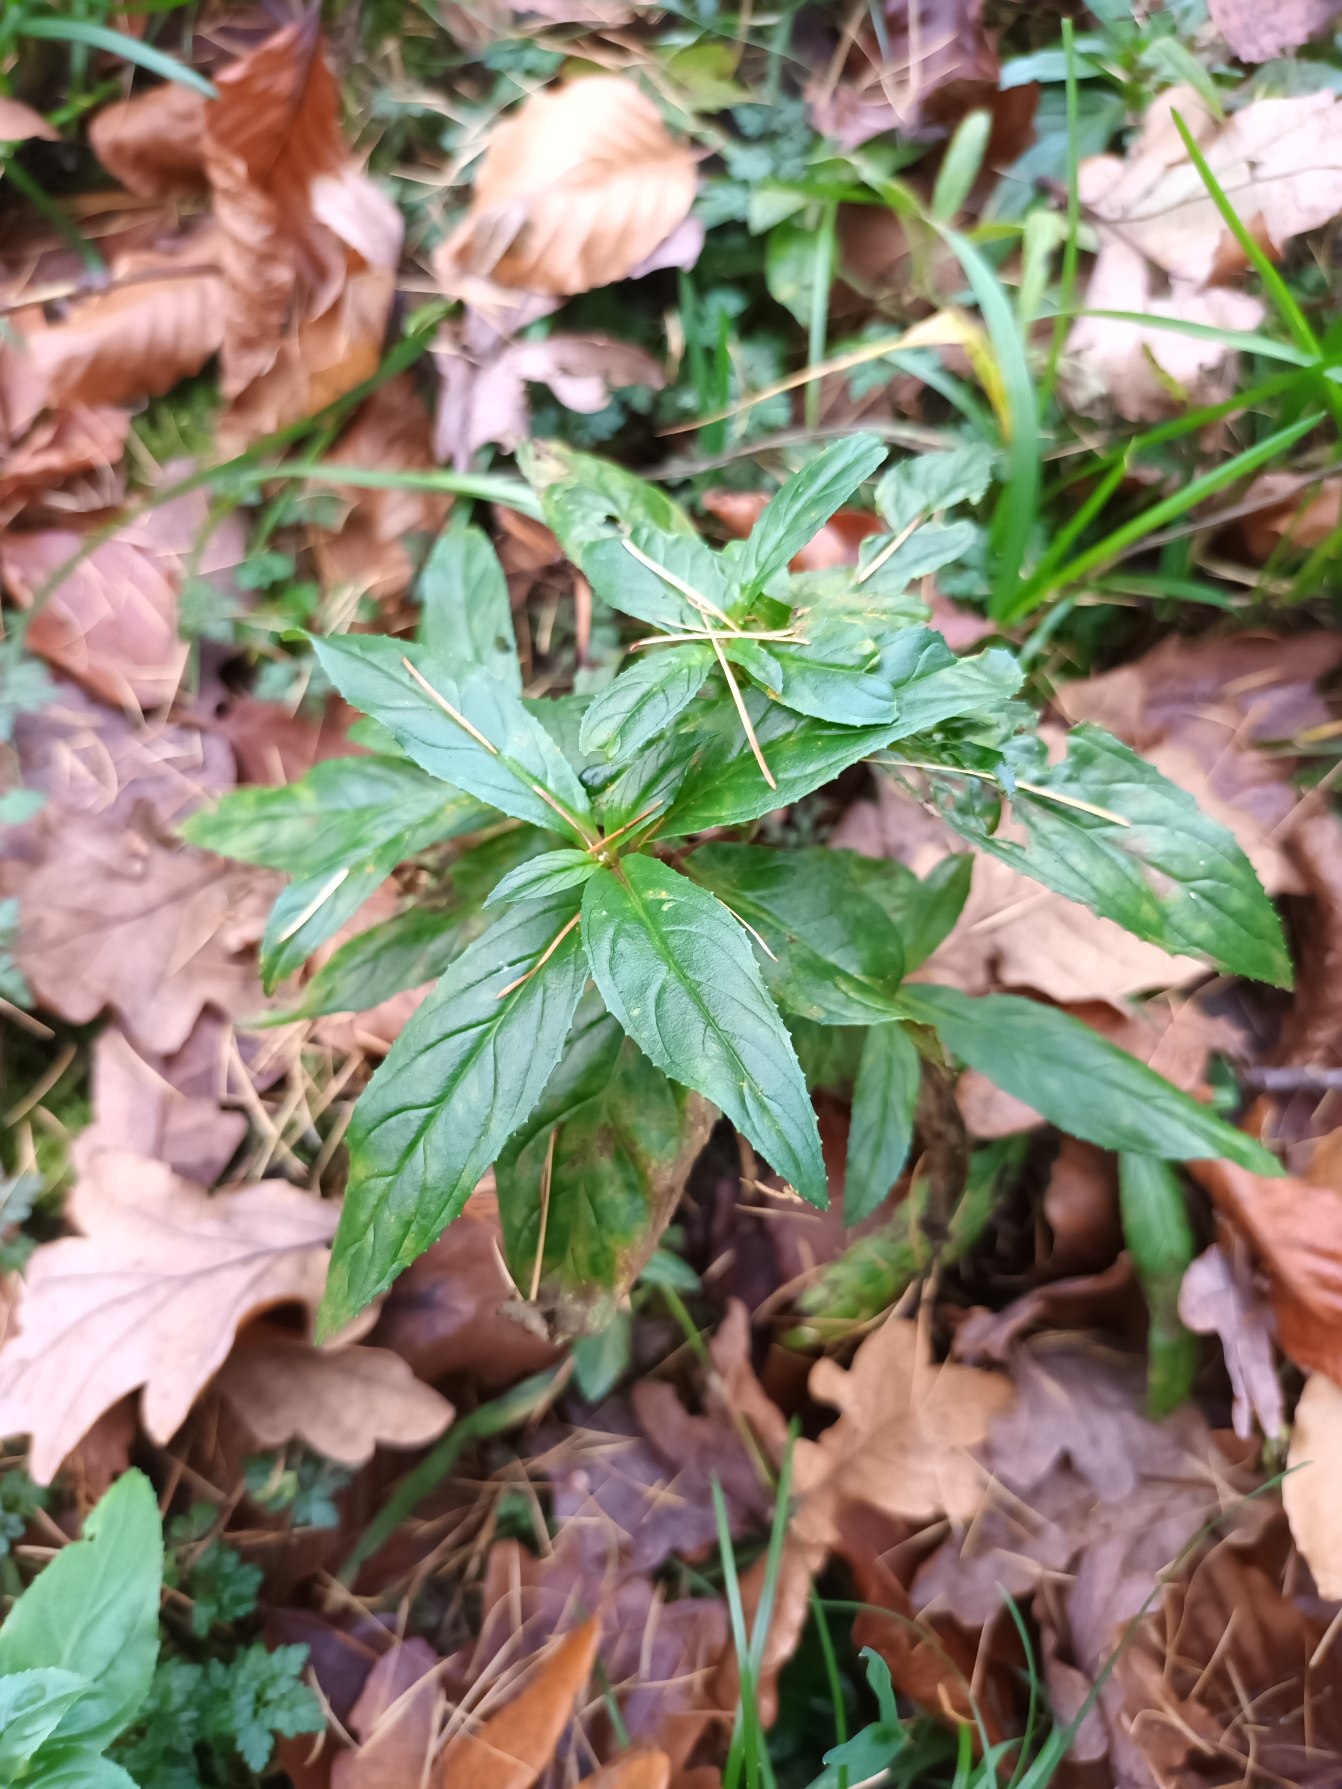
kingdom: Plantae
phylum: Tracheophyta
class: Magnoliopsida
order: Myrtales
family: Onagraceae
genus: Epilobium
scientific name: Epilobium ciliatum
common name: Alaska-dueurt
